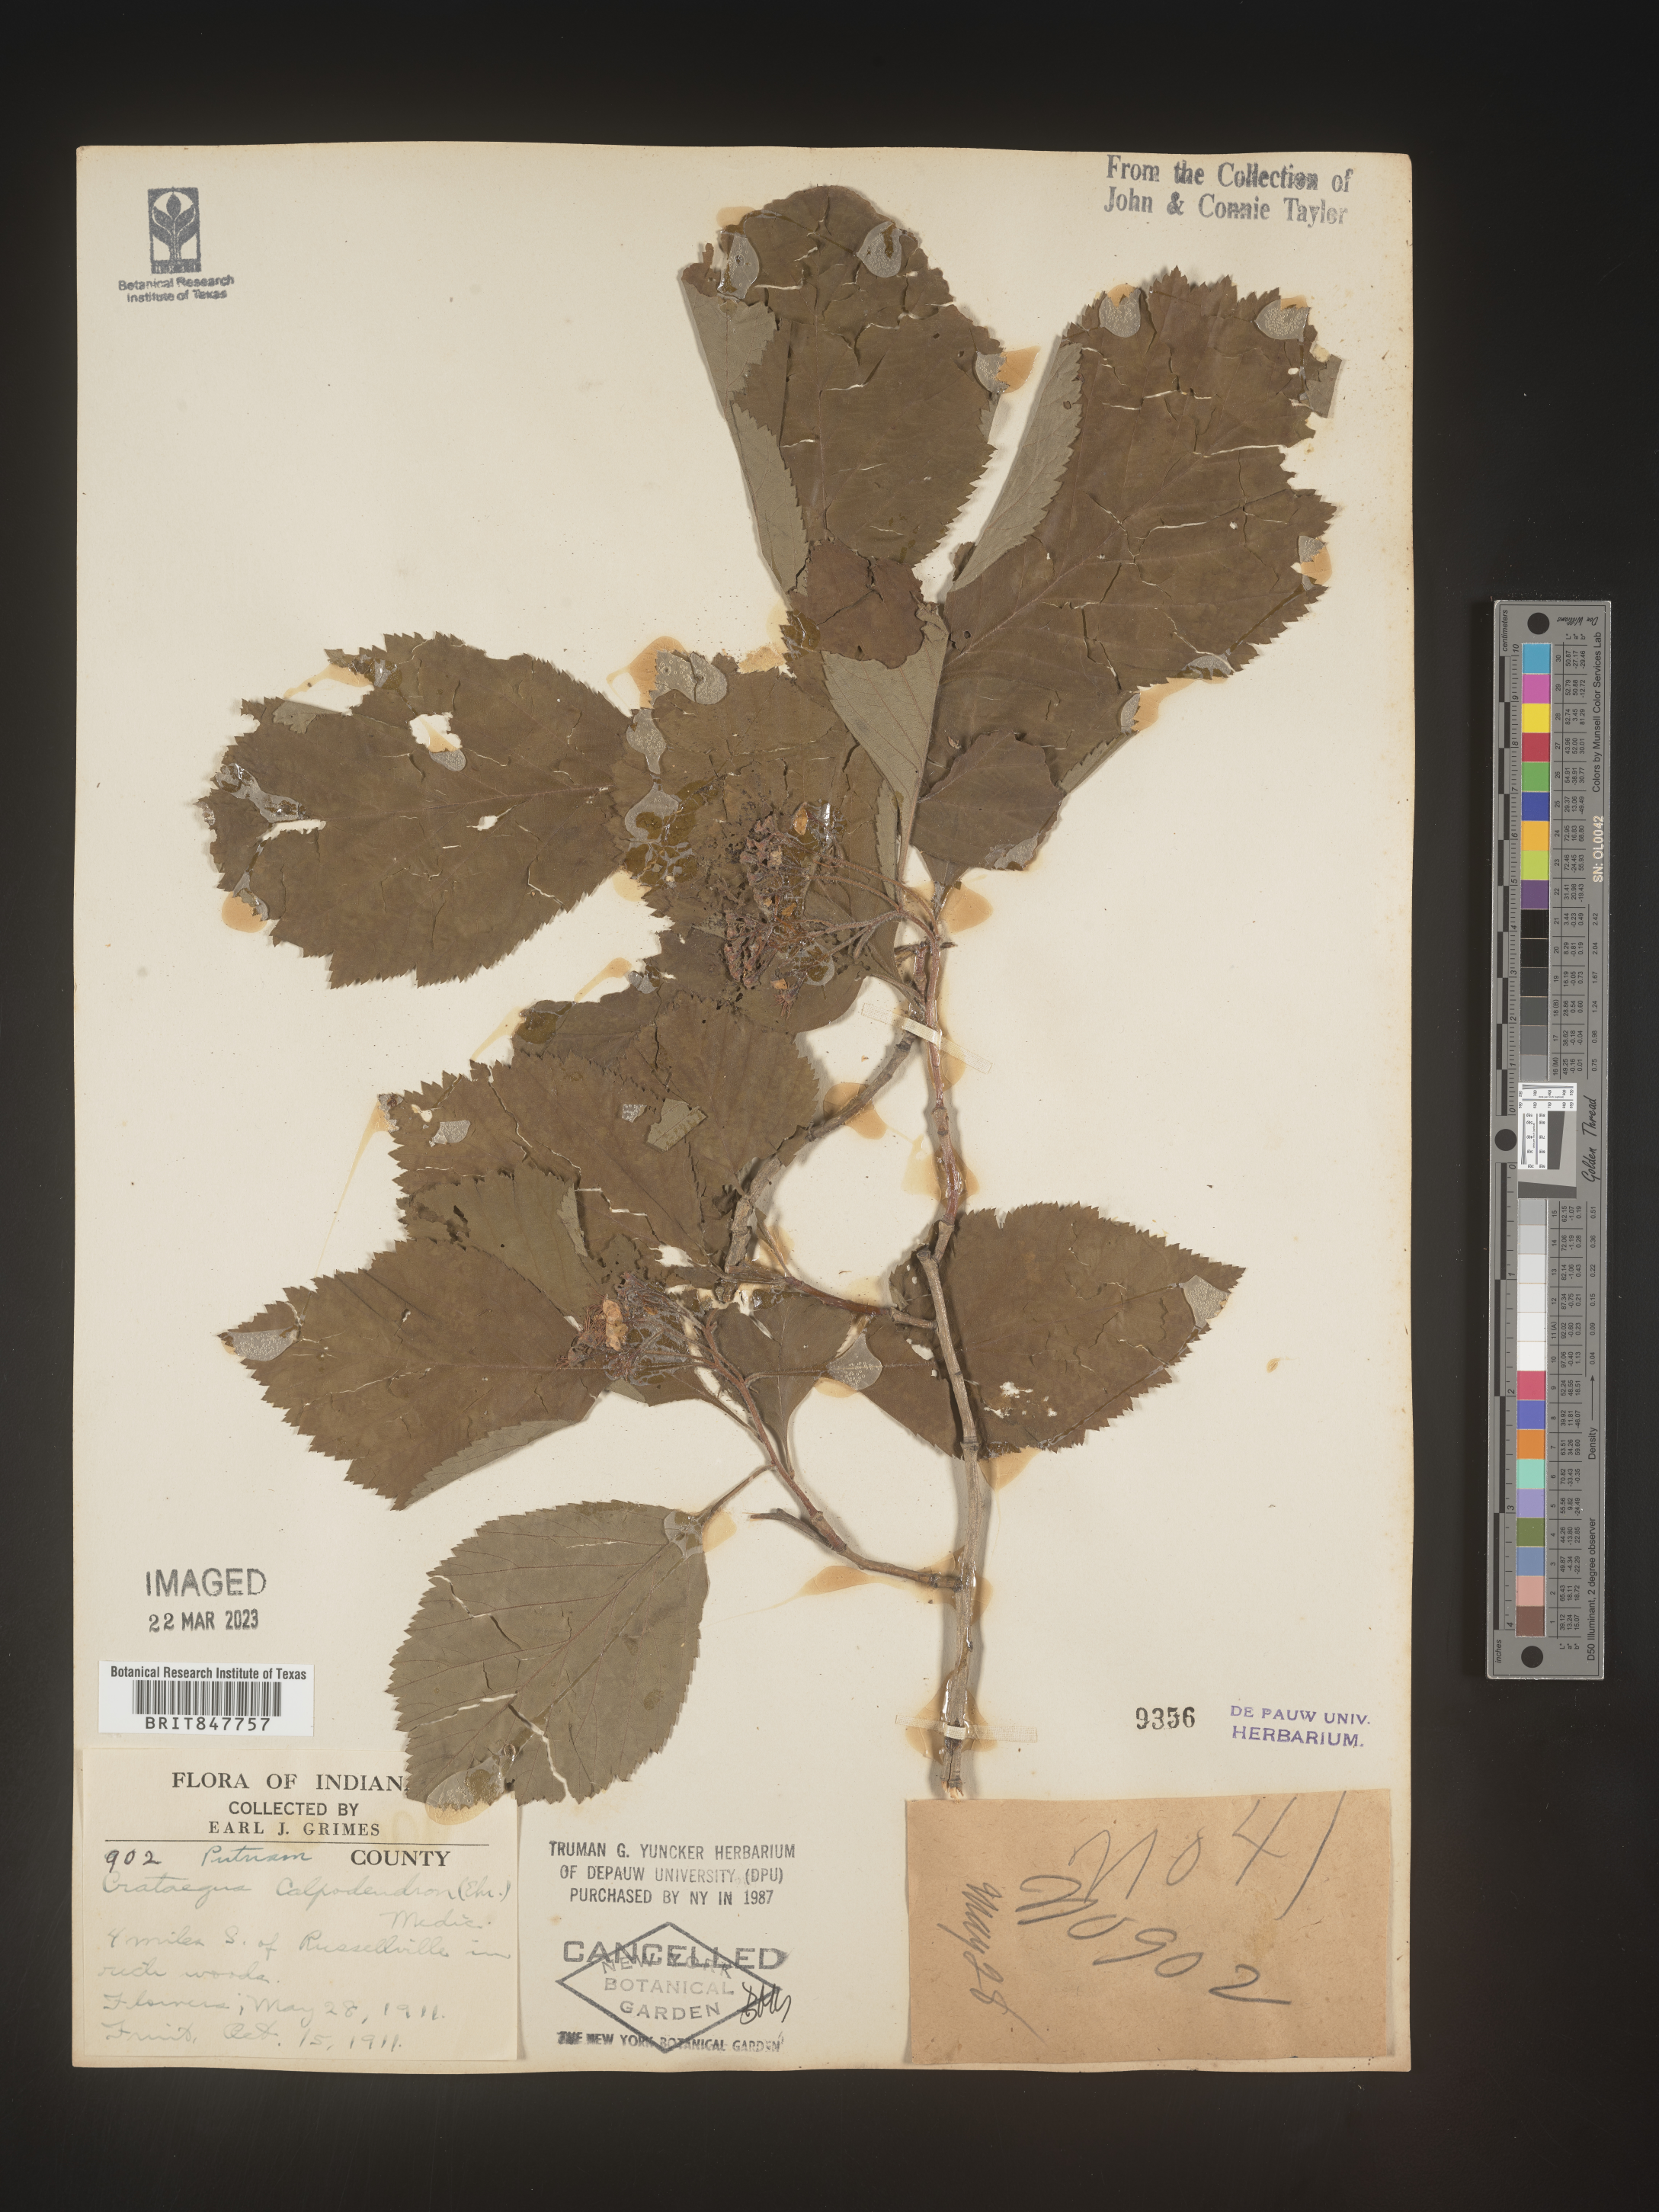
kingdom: Plantae
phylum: Tracheophyta
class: Magnoliopsida
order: Rosales
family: Rosaceae
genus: Crataegus
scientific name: Crataegus calpodendron
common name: Pear hawthorn
